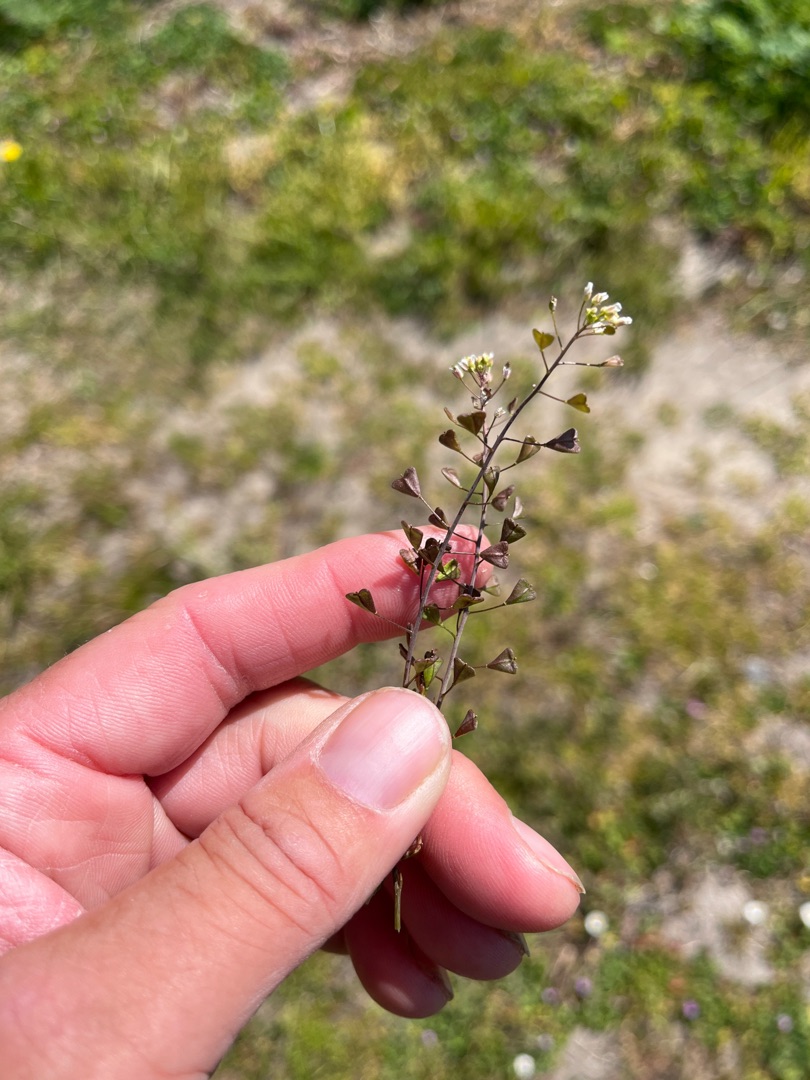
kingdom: Plantae
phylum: Tracheophyta
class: Magnoliopsida
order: Brassicales
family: Brassicaceae
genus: Capsella
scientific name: Capsella bursa-pastoris
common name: Hyrdetaske
